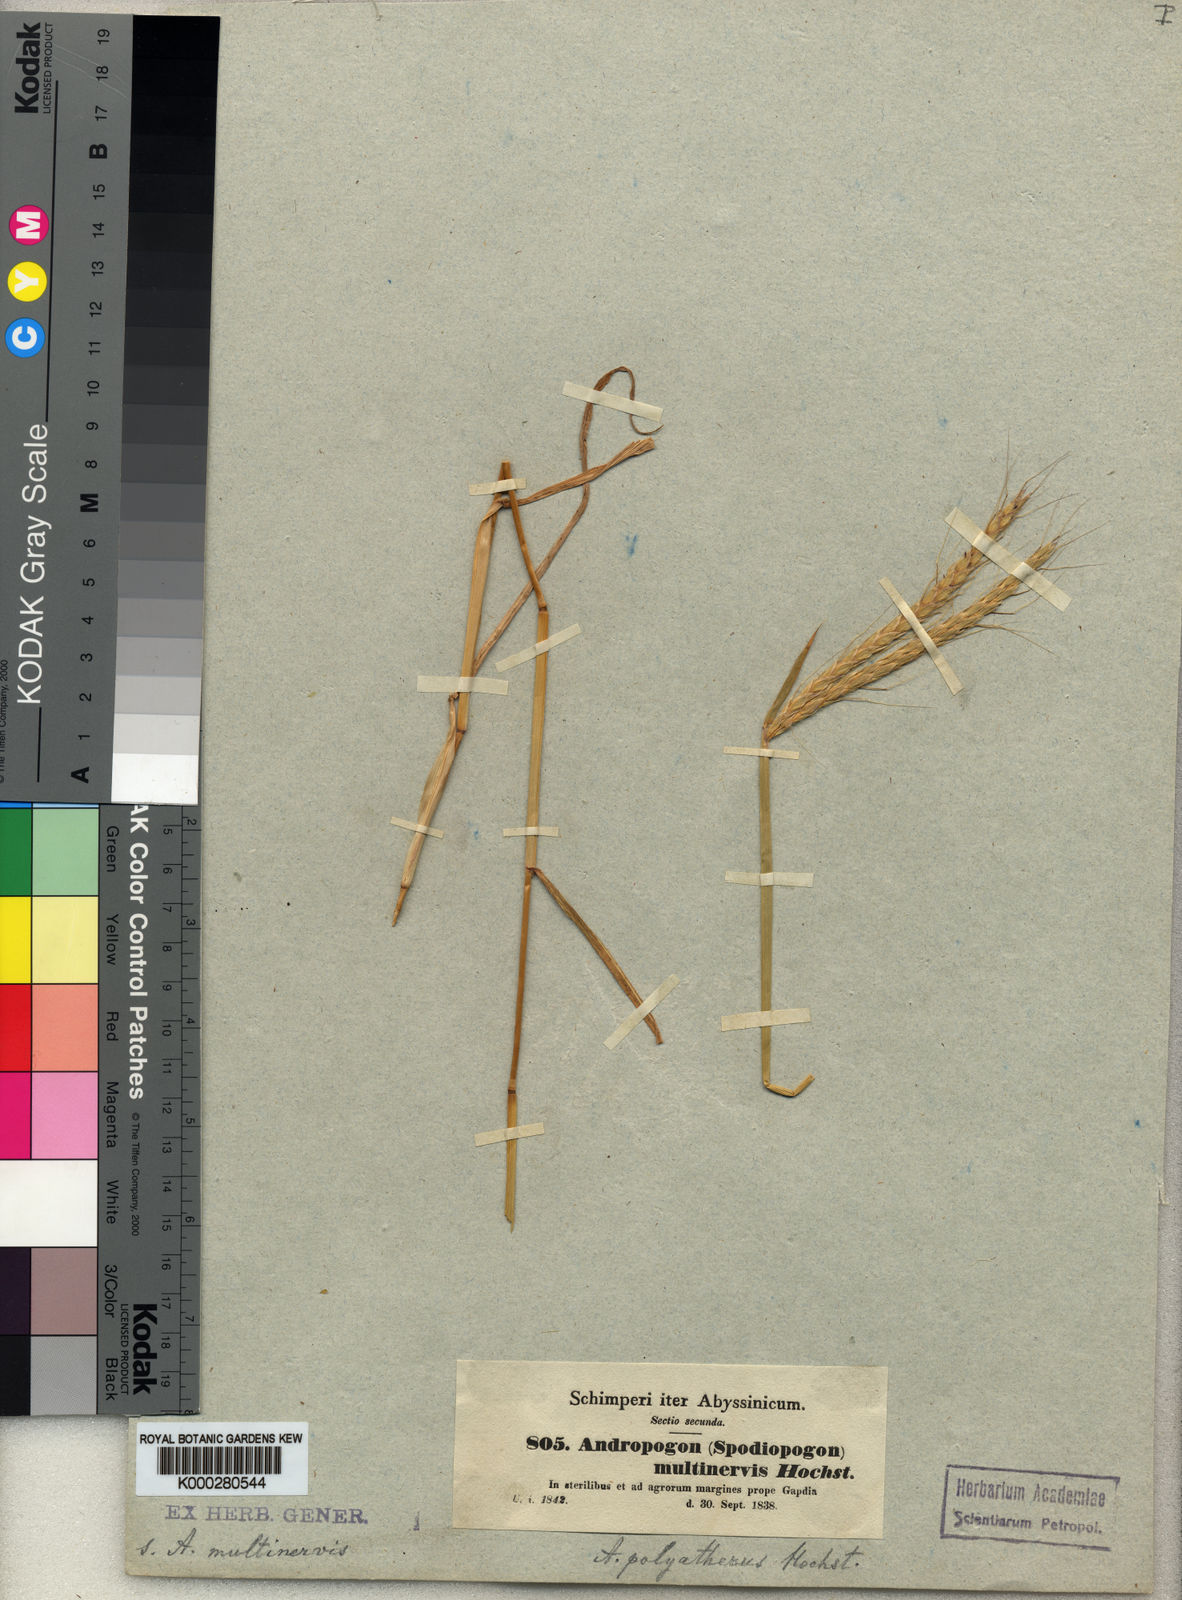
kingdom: Plantae
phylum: Tracheophyta
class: Liliopsida
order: Poales
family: Poaceae
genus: Andropogon
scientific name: Andropogon abyssinicus
